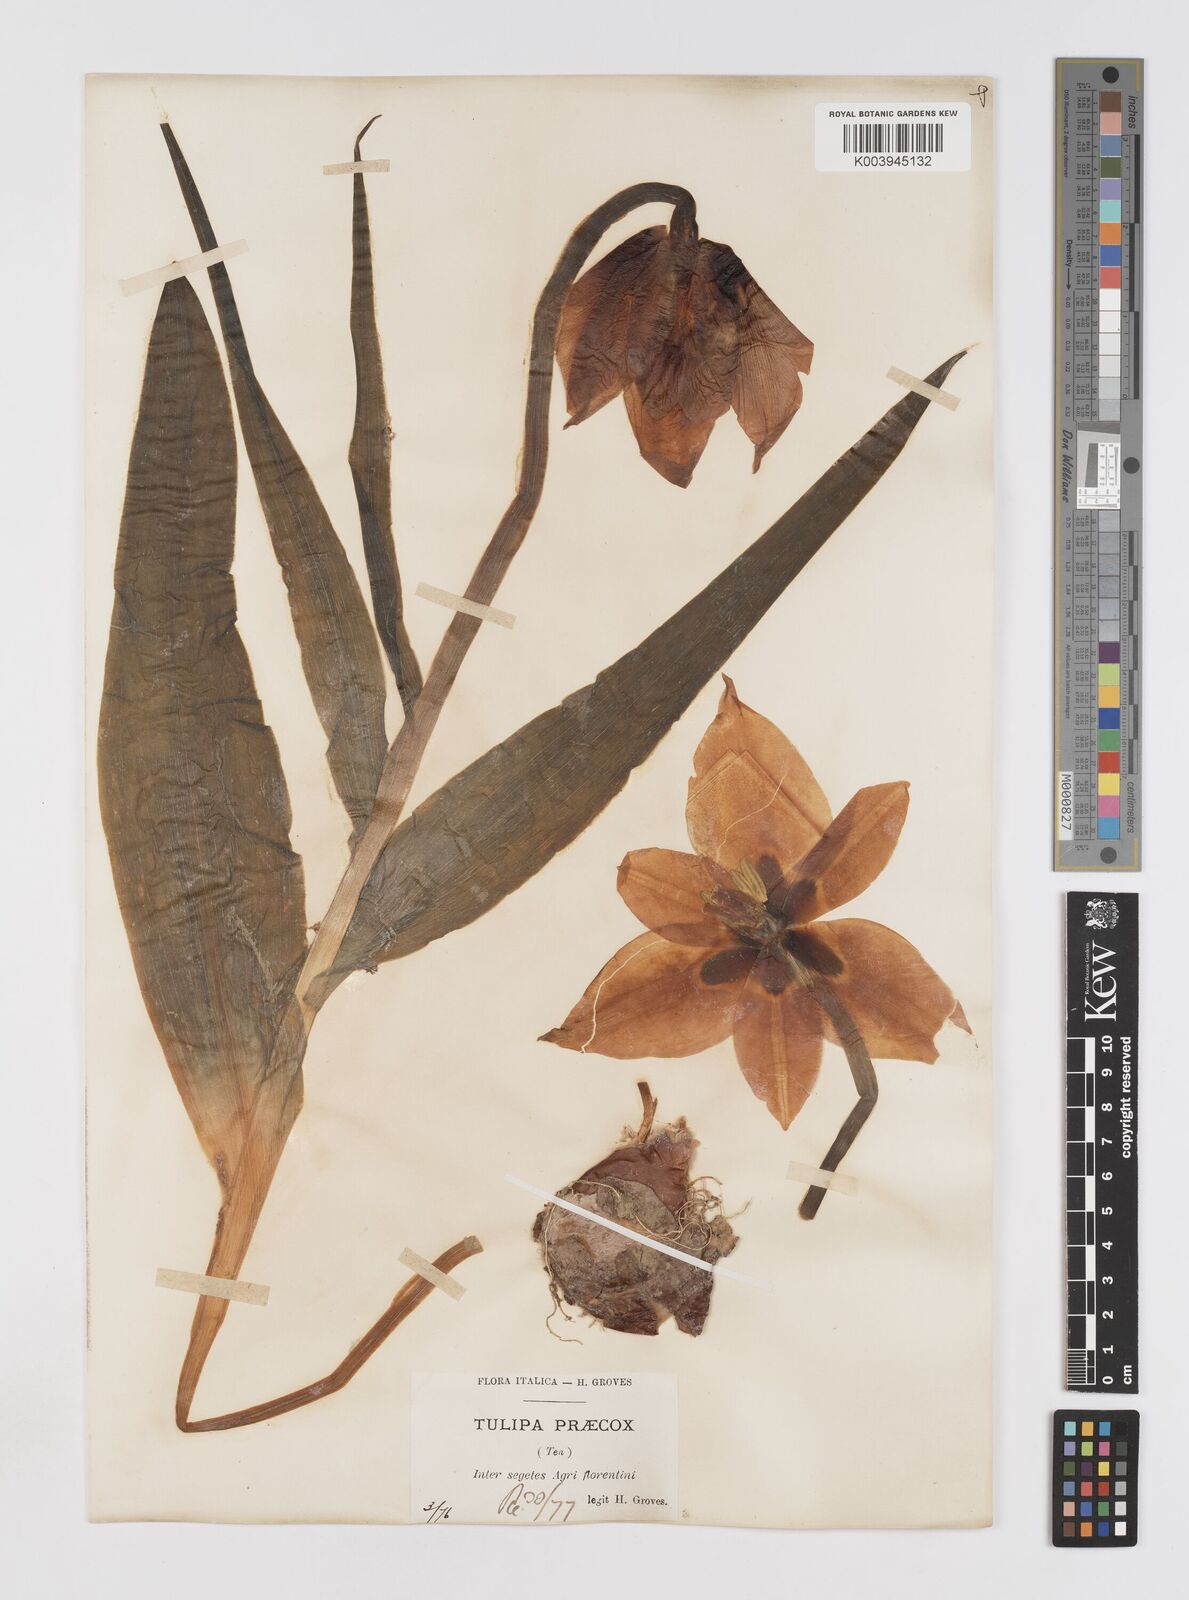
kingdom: Plantae
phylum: Tracheophyta
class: Liliopsida
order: Liliales
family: Liliaceae
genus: Tulipa
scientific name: Tulipa
